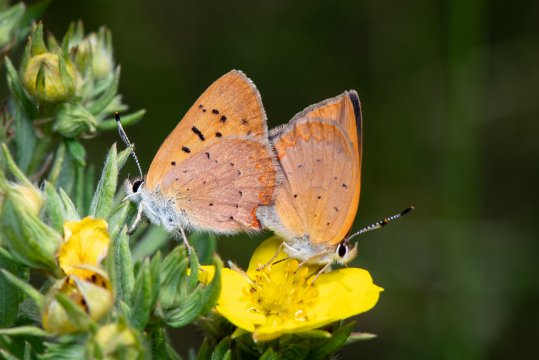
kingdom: Animalia
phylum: Arthropoda
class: Insecta
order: Lepidoptera
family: Lycaenidae
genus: Epidemia
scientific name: Epidemia dorcas
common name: Dorcas Copper
